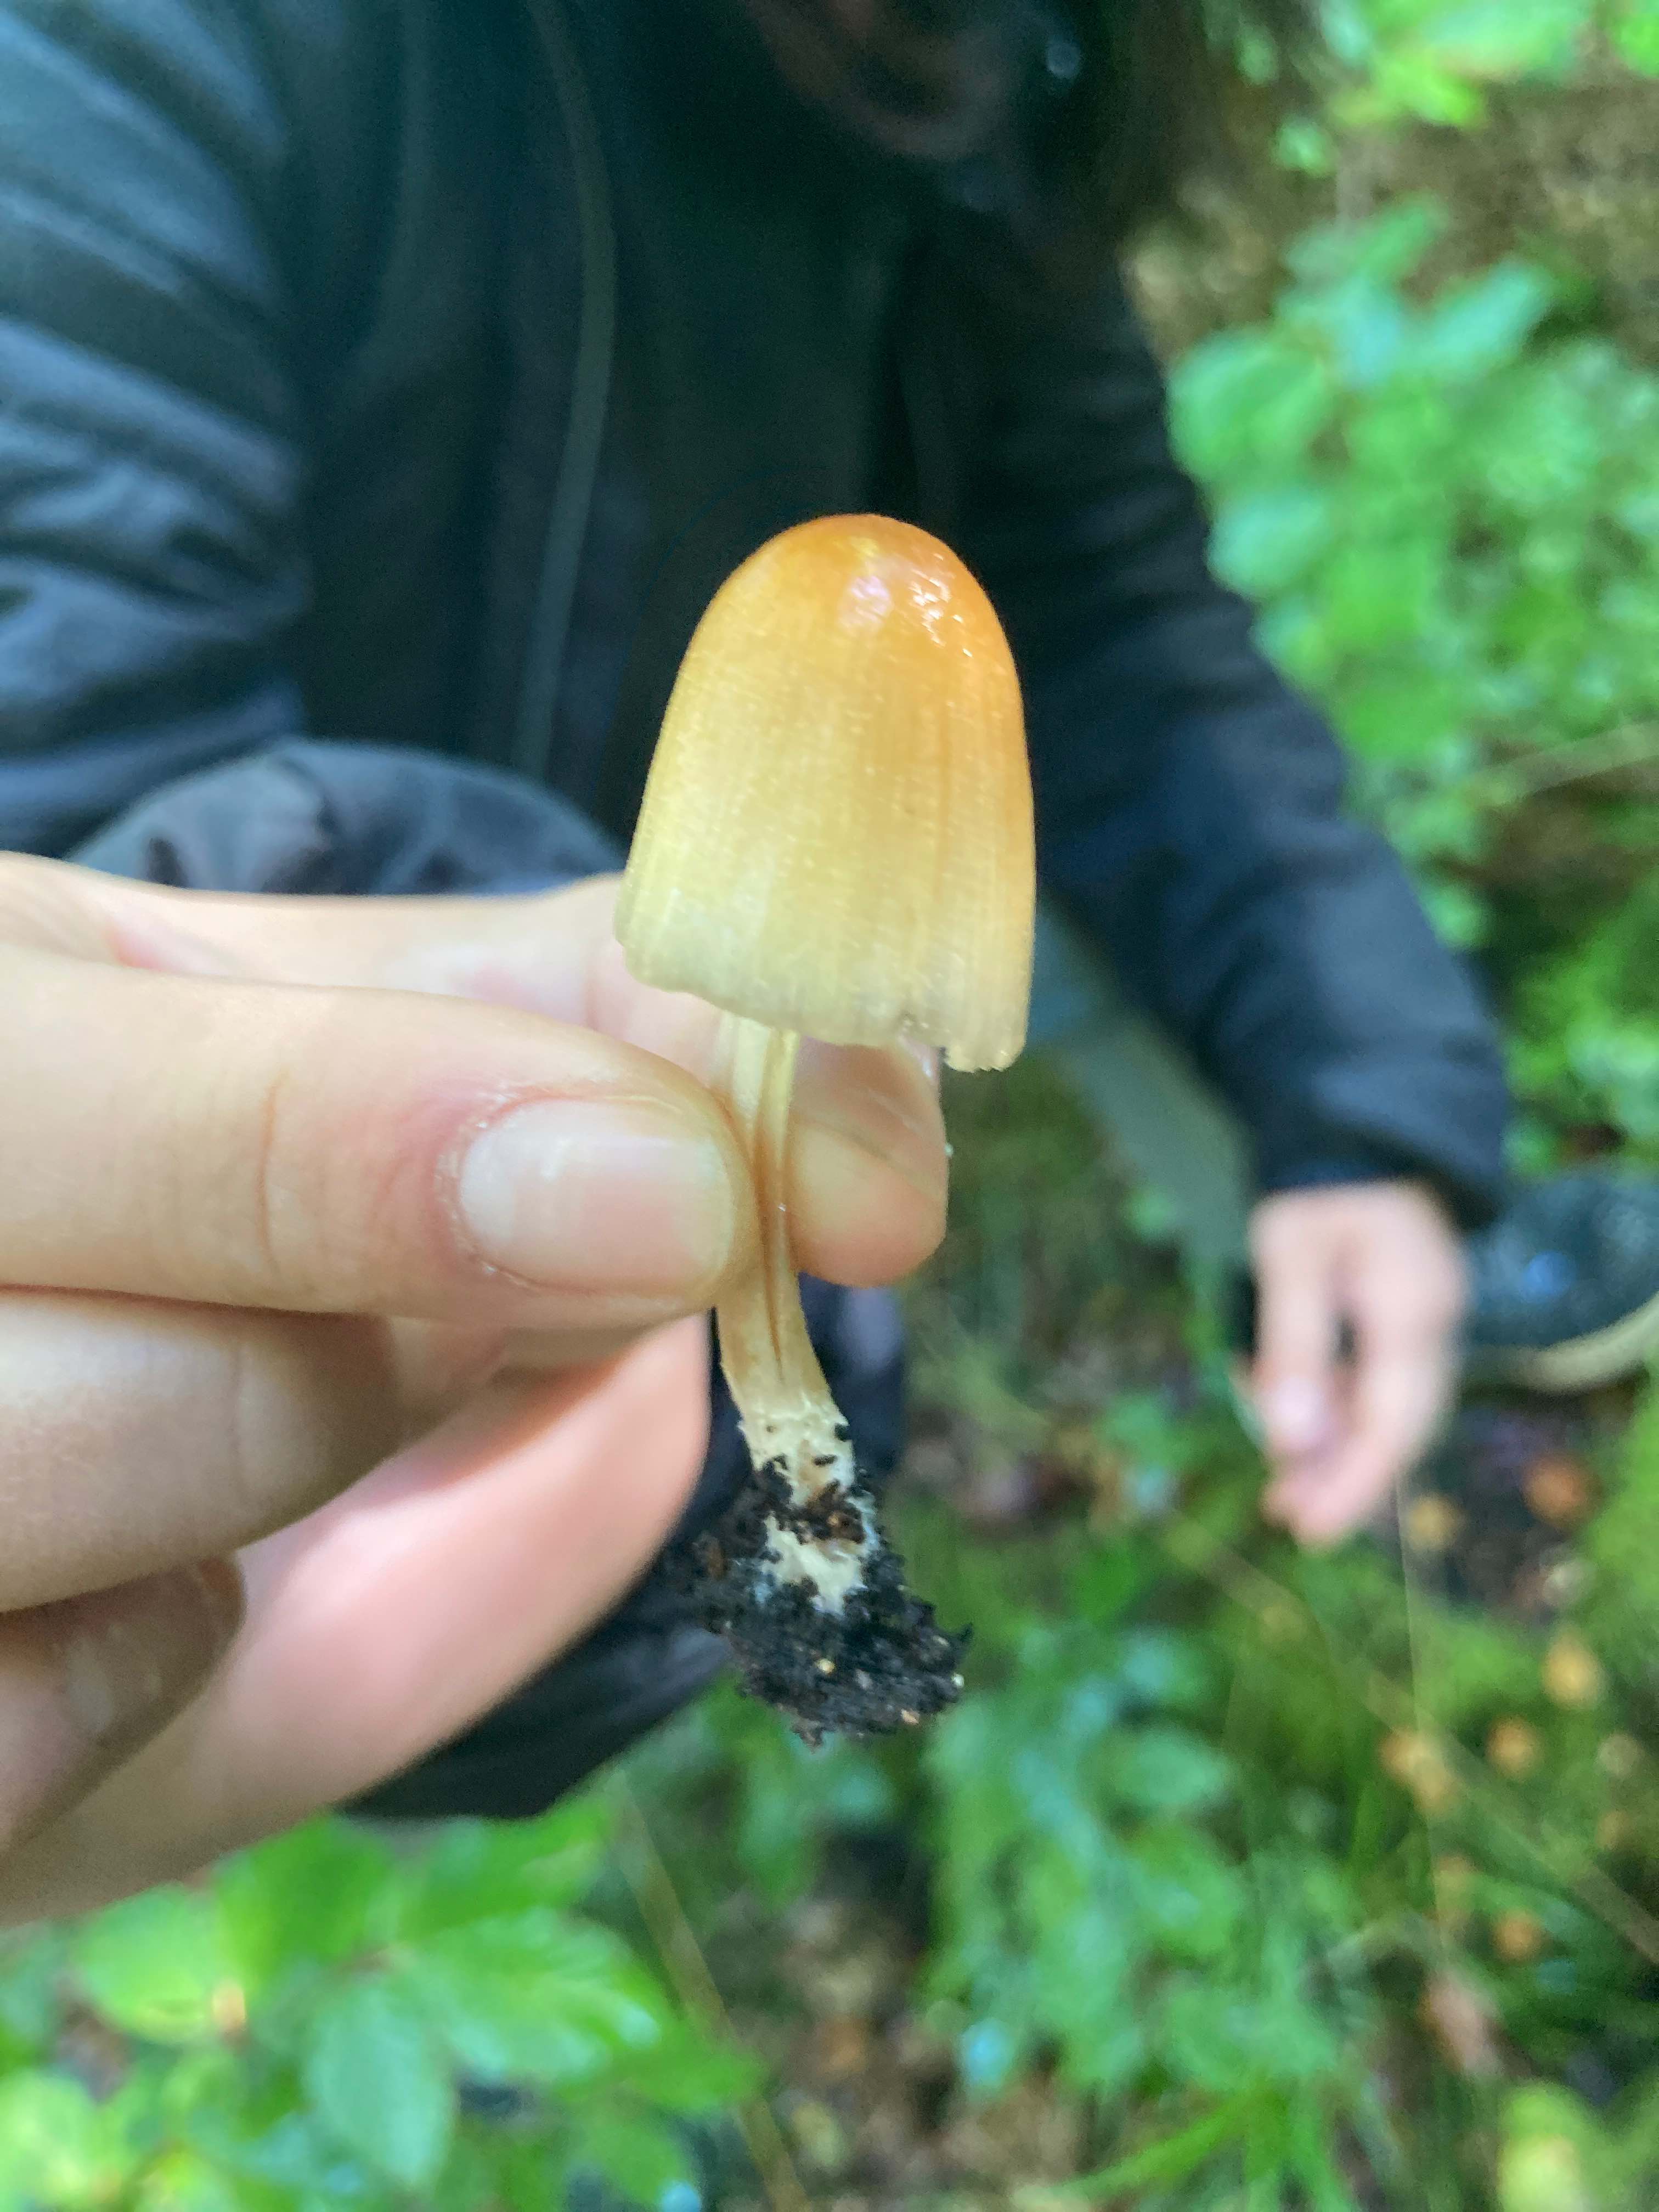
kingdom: Fungi
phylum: Basidiomycota
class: Agaricomycetes
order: Agaricales
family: Psathyrellaceae
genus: Coprinellus
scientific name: Coprinellus
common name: blækhat
